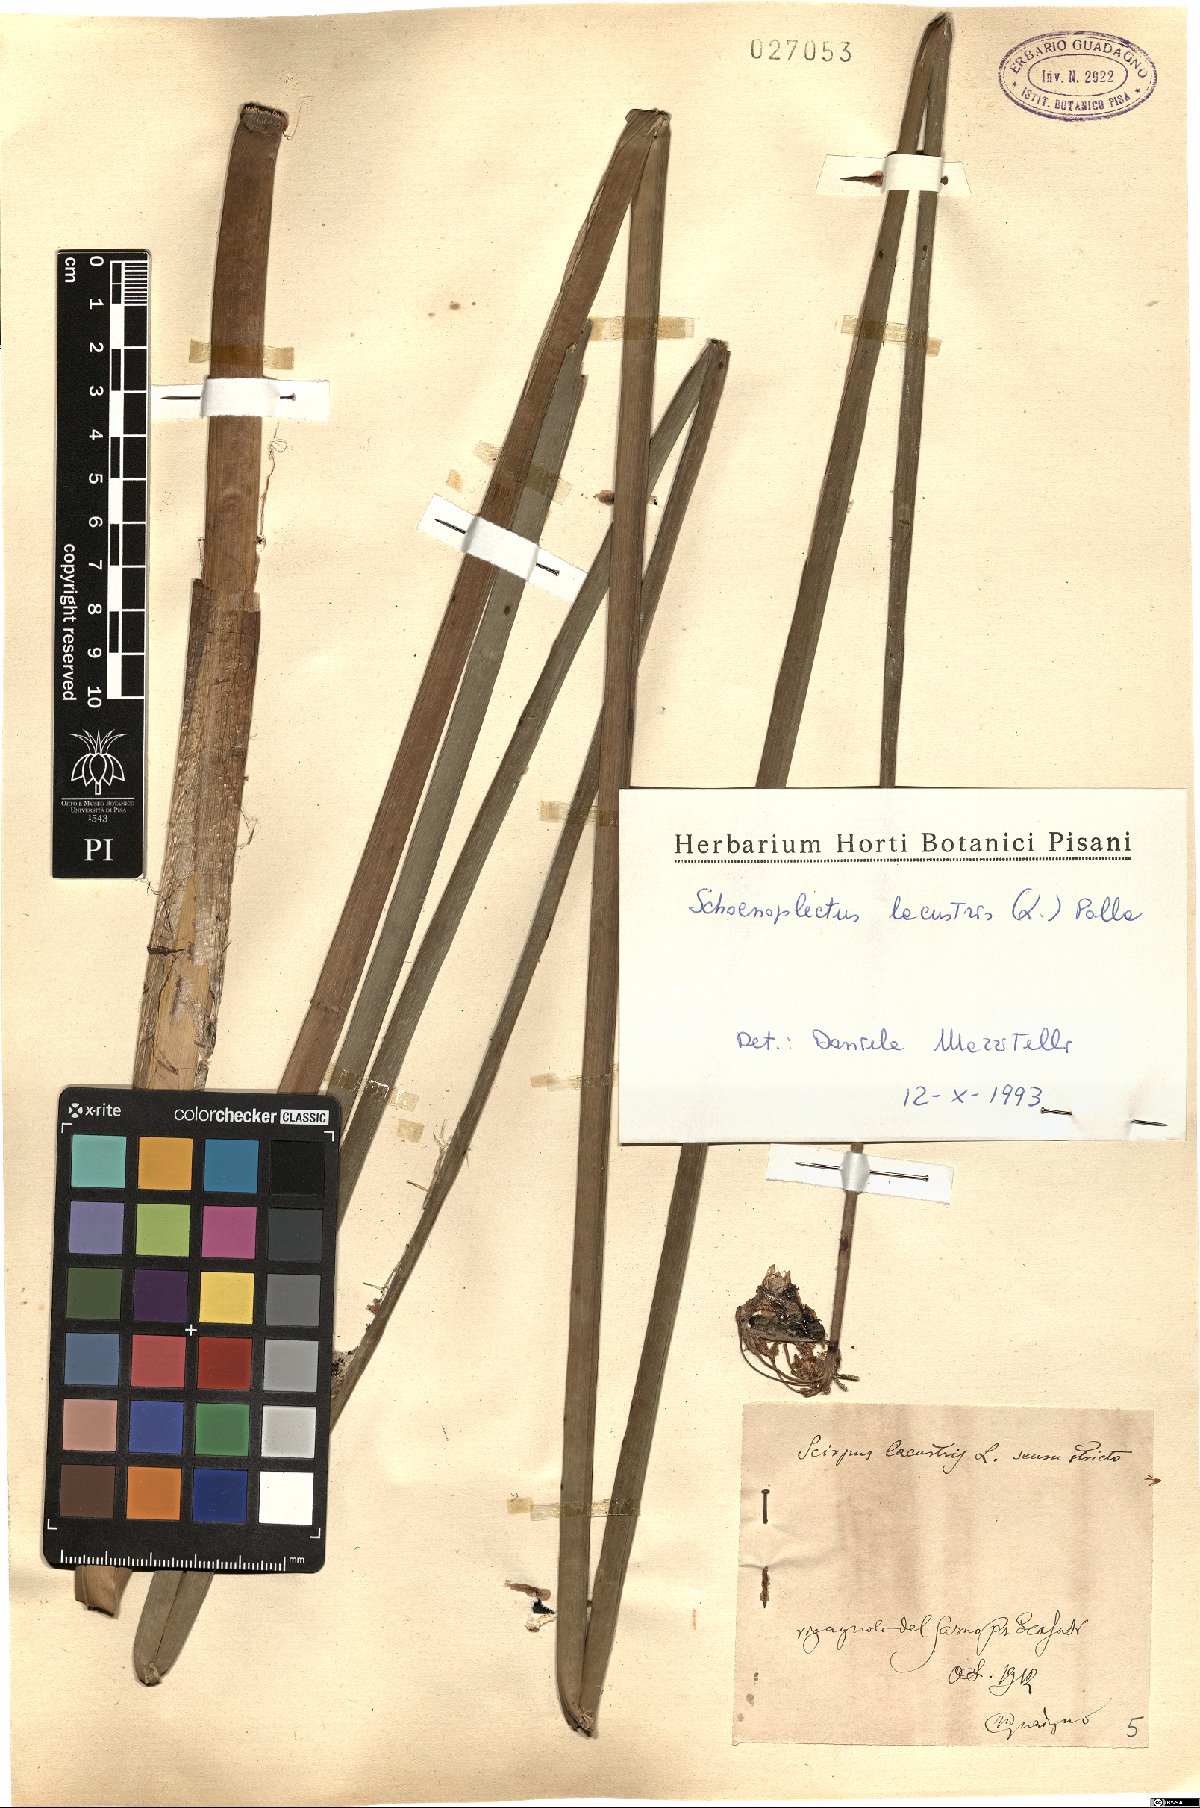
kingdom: Plantae
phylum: Tracheophyta
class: Liliopsida
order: Poales
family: Cyperaceae
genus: Schoenoplectus
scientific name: Schoenoplectus lacustris
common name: Common club-rush
